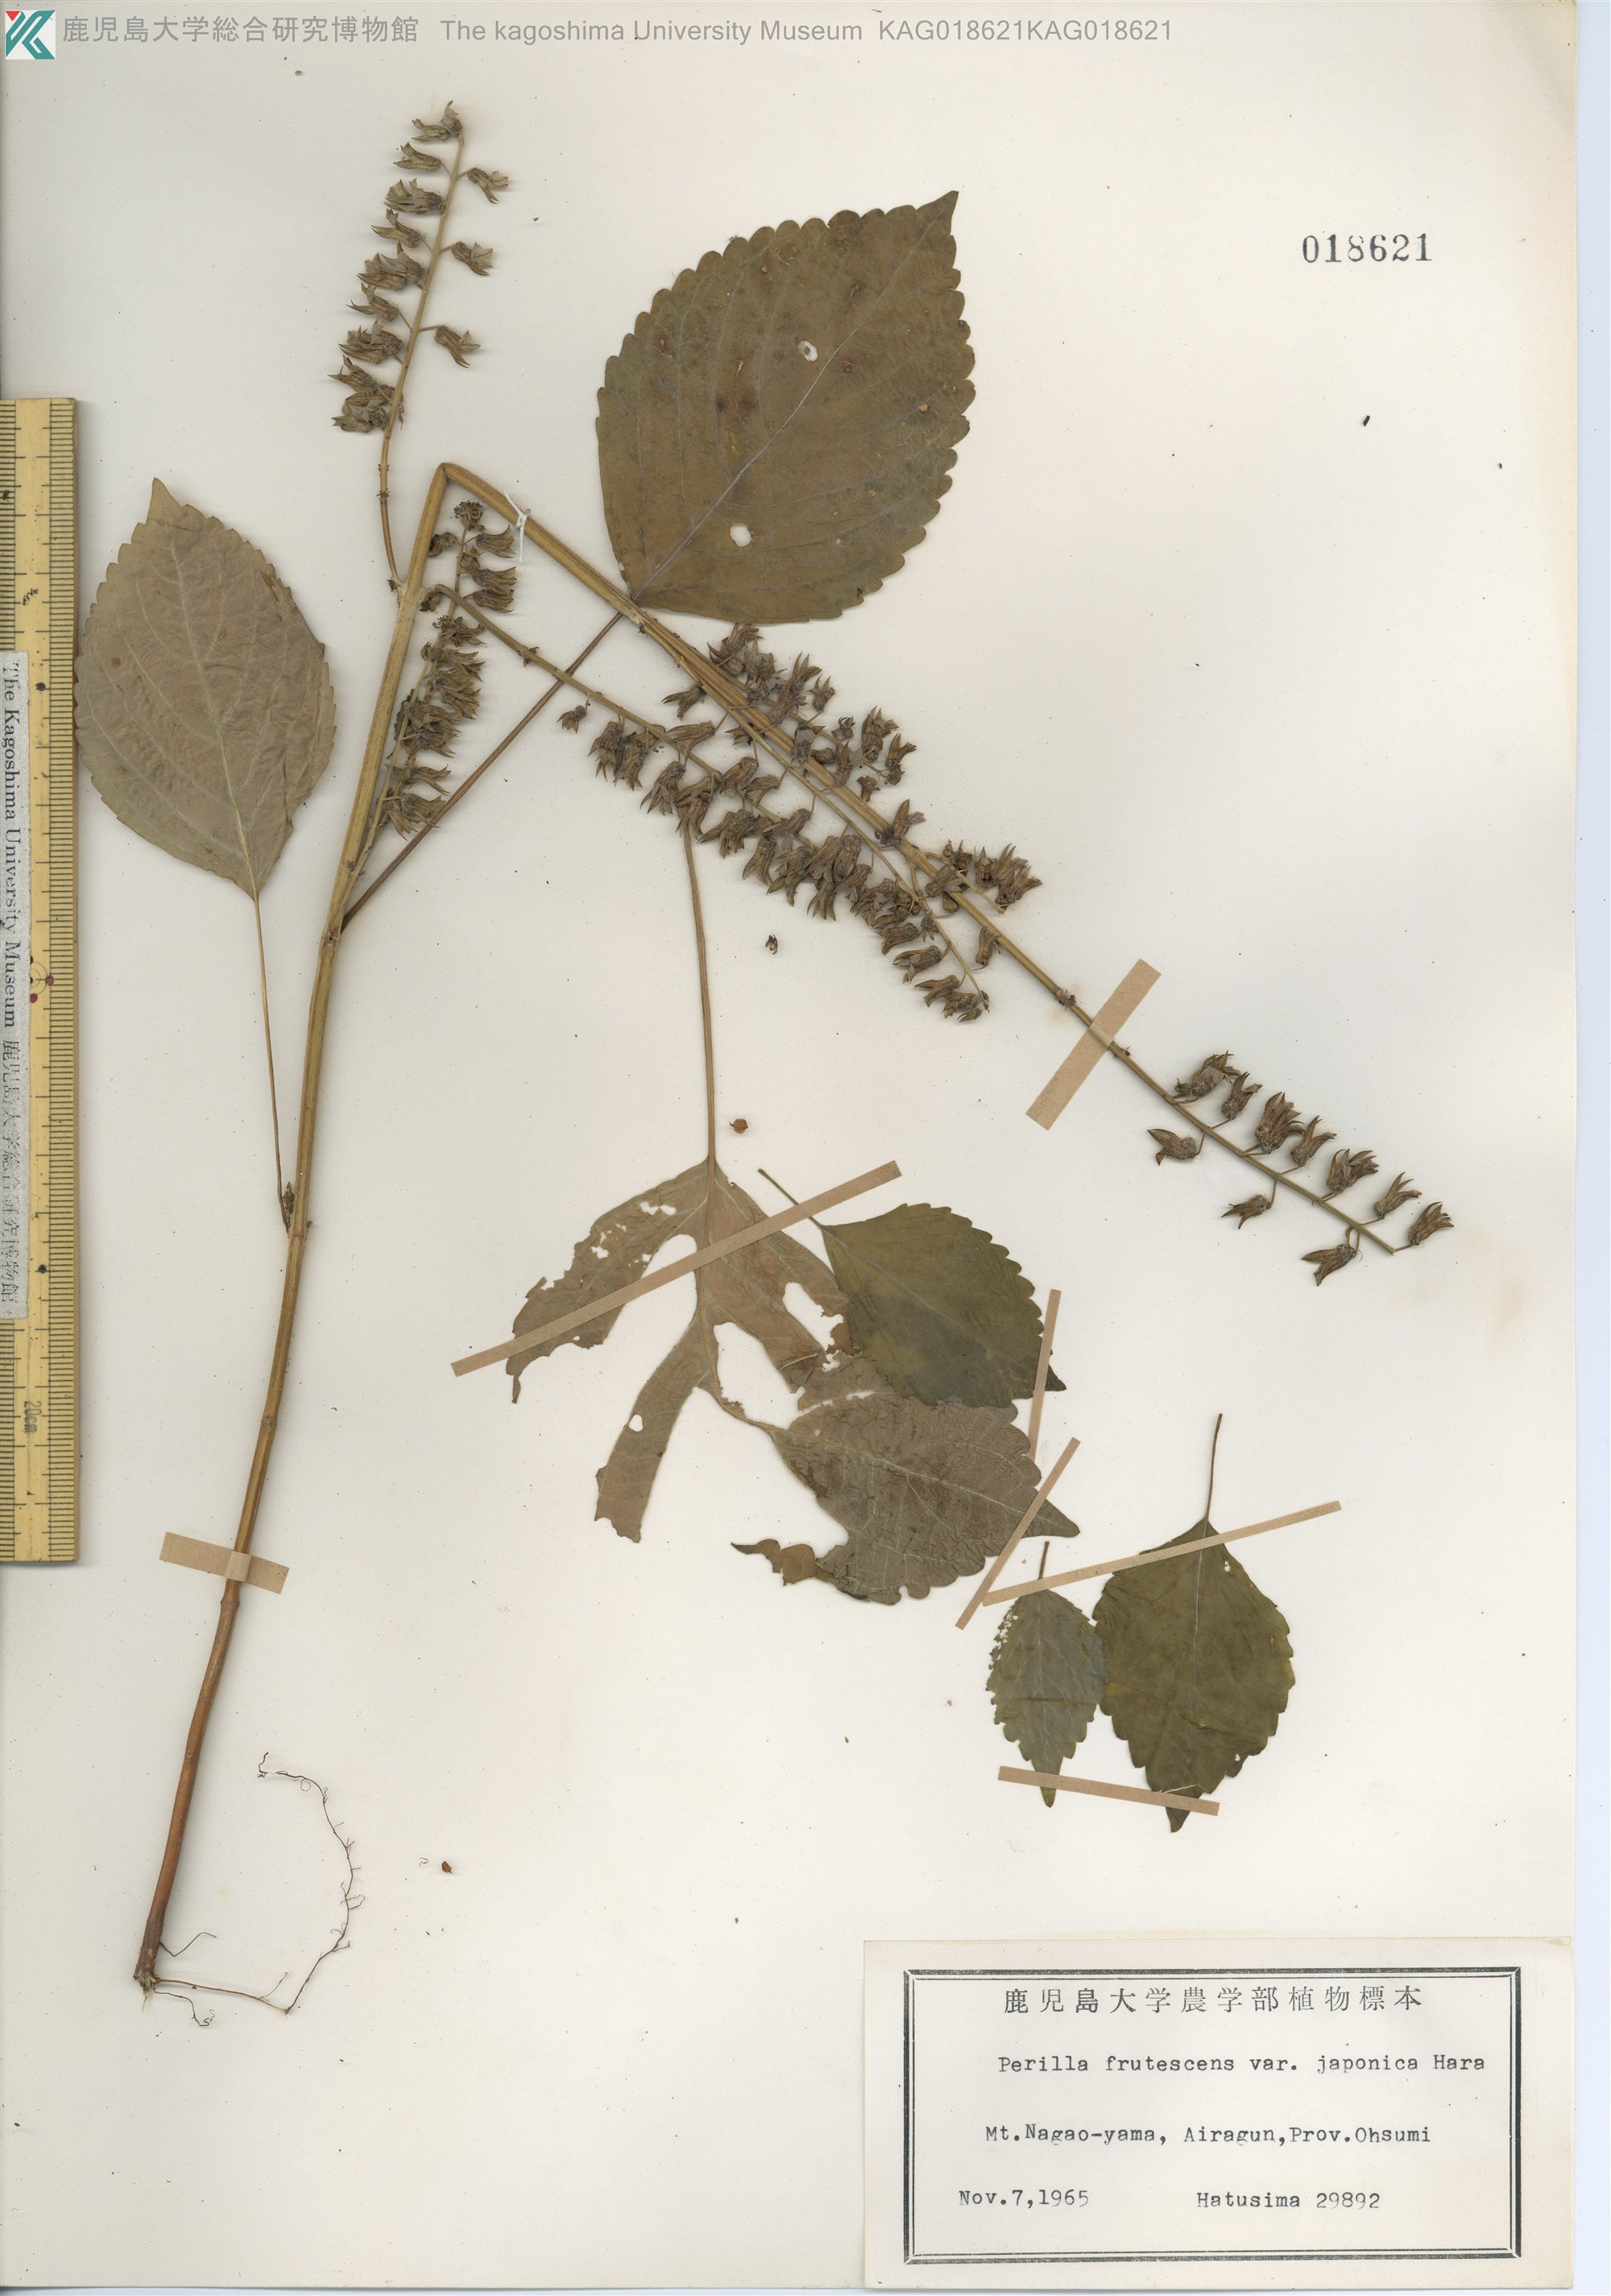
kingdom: Plantae
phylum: Tracheophyta
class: Magnoliopsida
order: Lamiales
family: Lamiaceae
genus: Perilla
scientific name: Perilla frutescens
